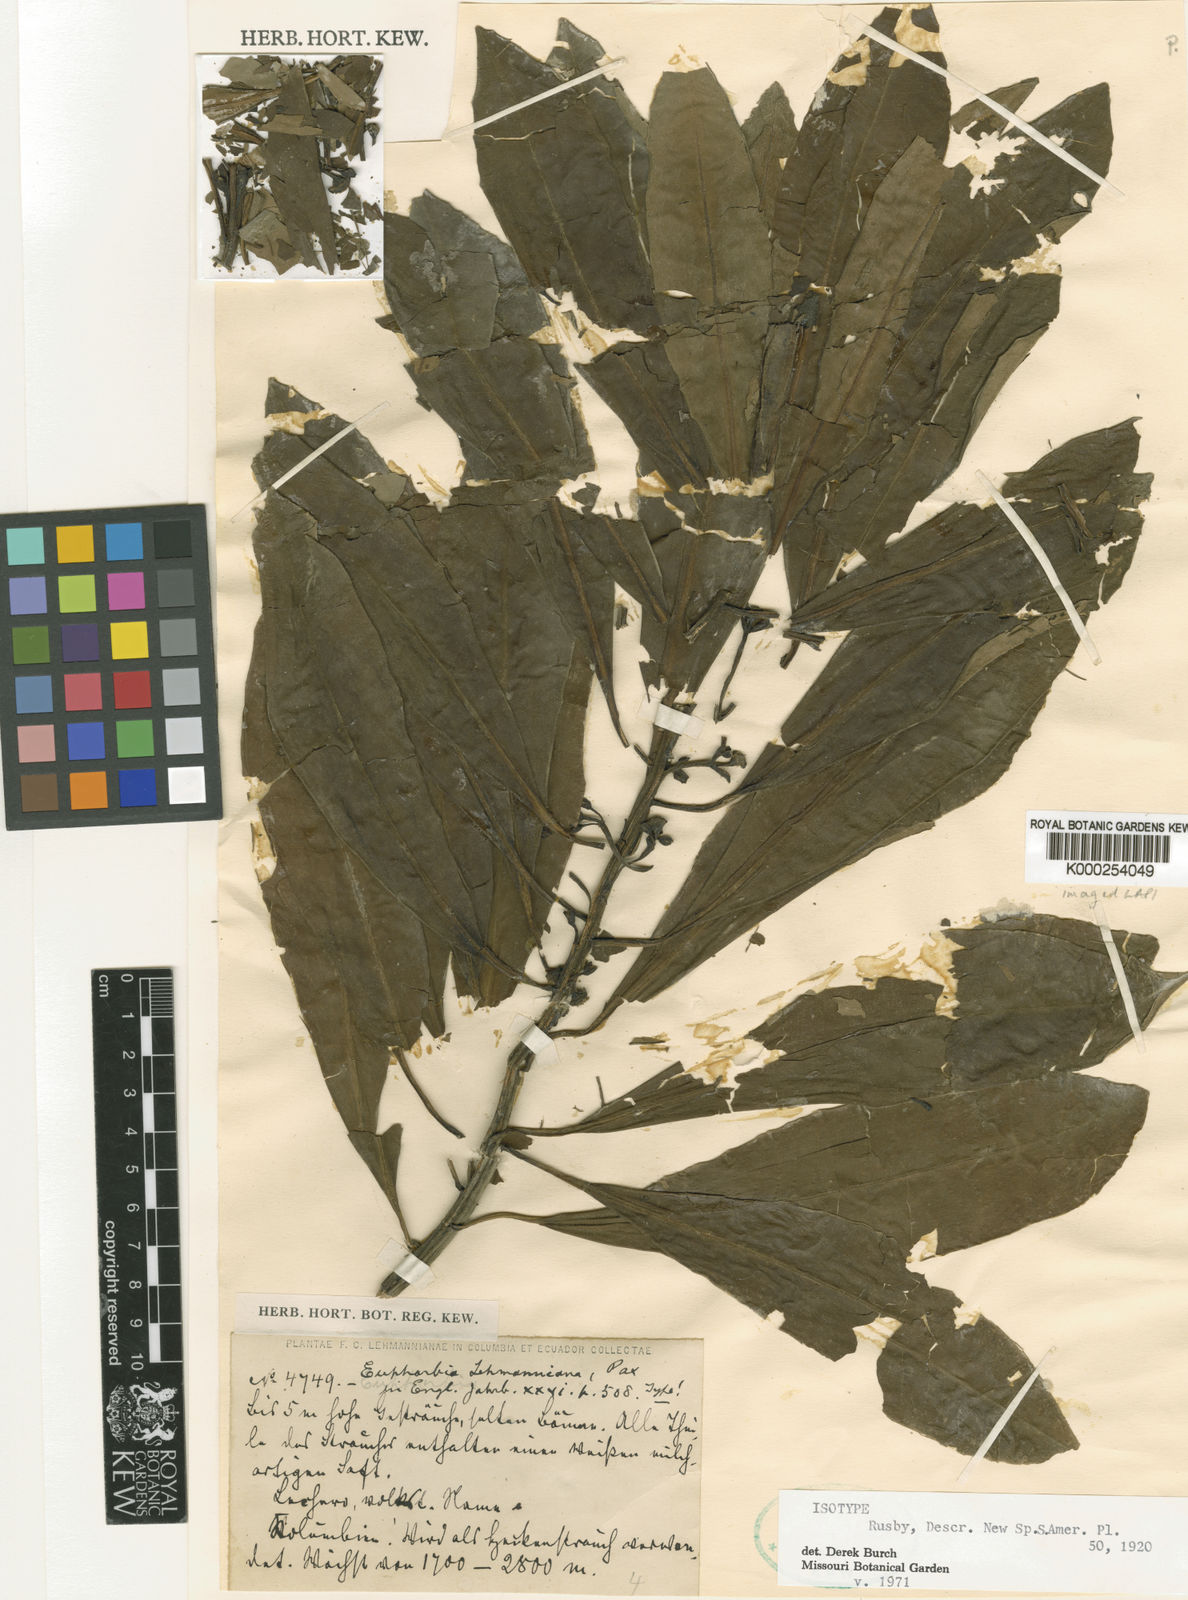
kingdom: Plantae
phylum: Tracheophyta
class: Magnoliopsida
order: Malpighiales
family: Euphorbiaceae
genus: Euphorbia
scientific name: Euphorbia laurifolia
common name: Lechero
